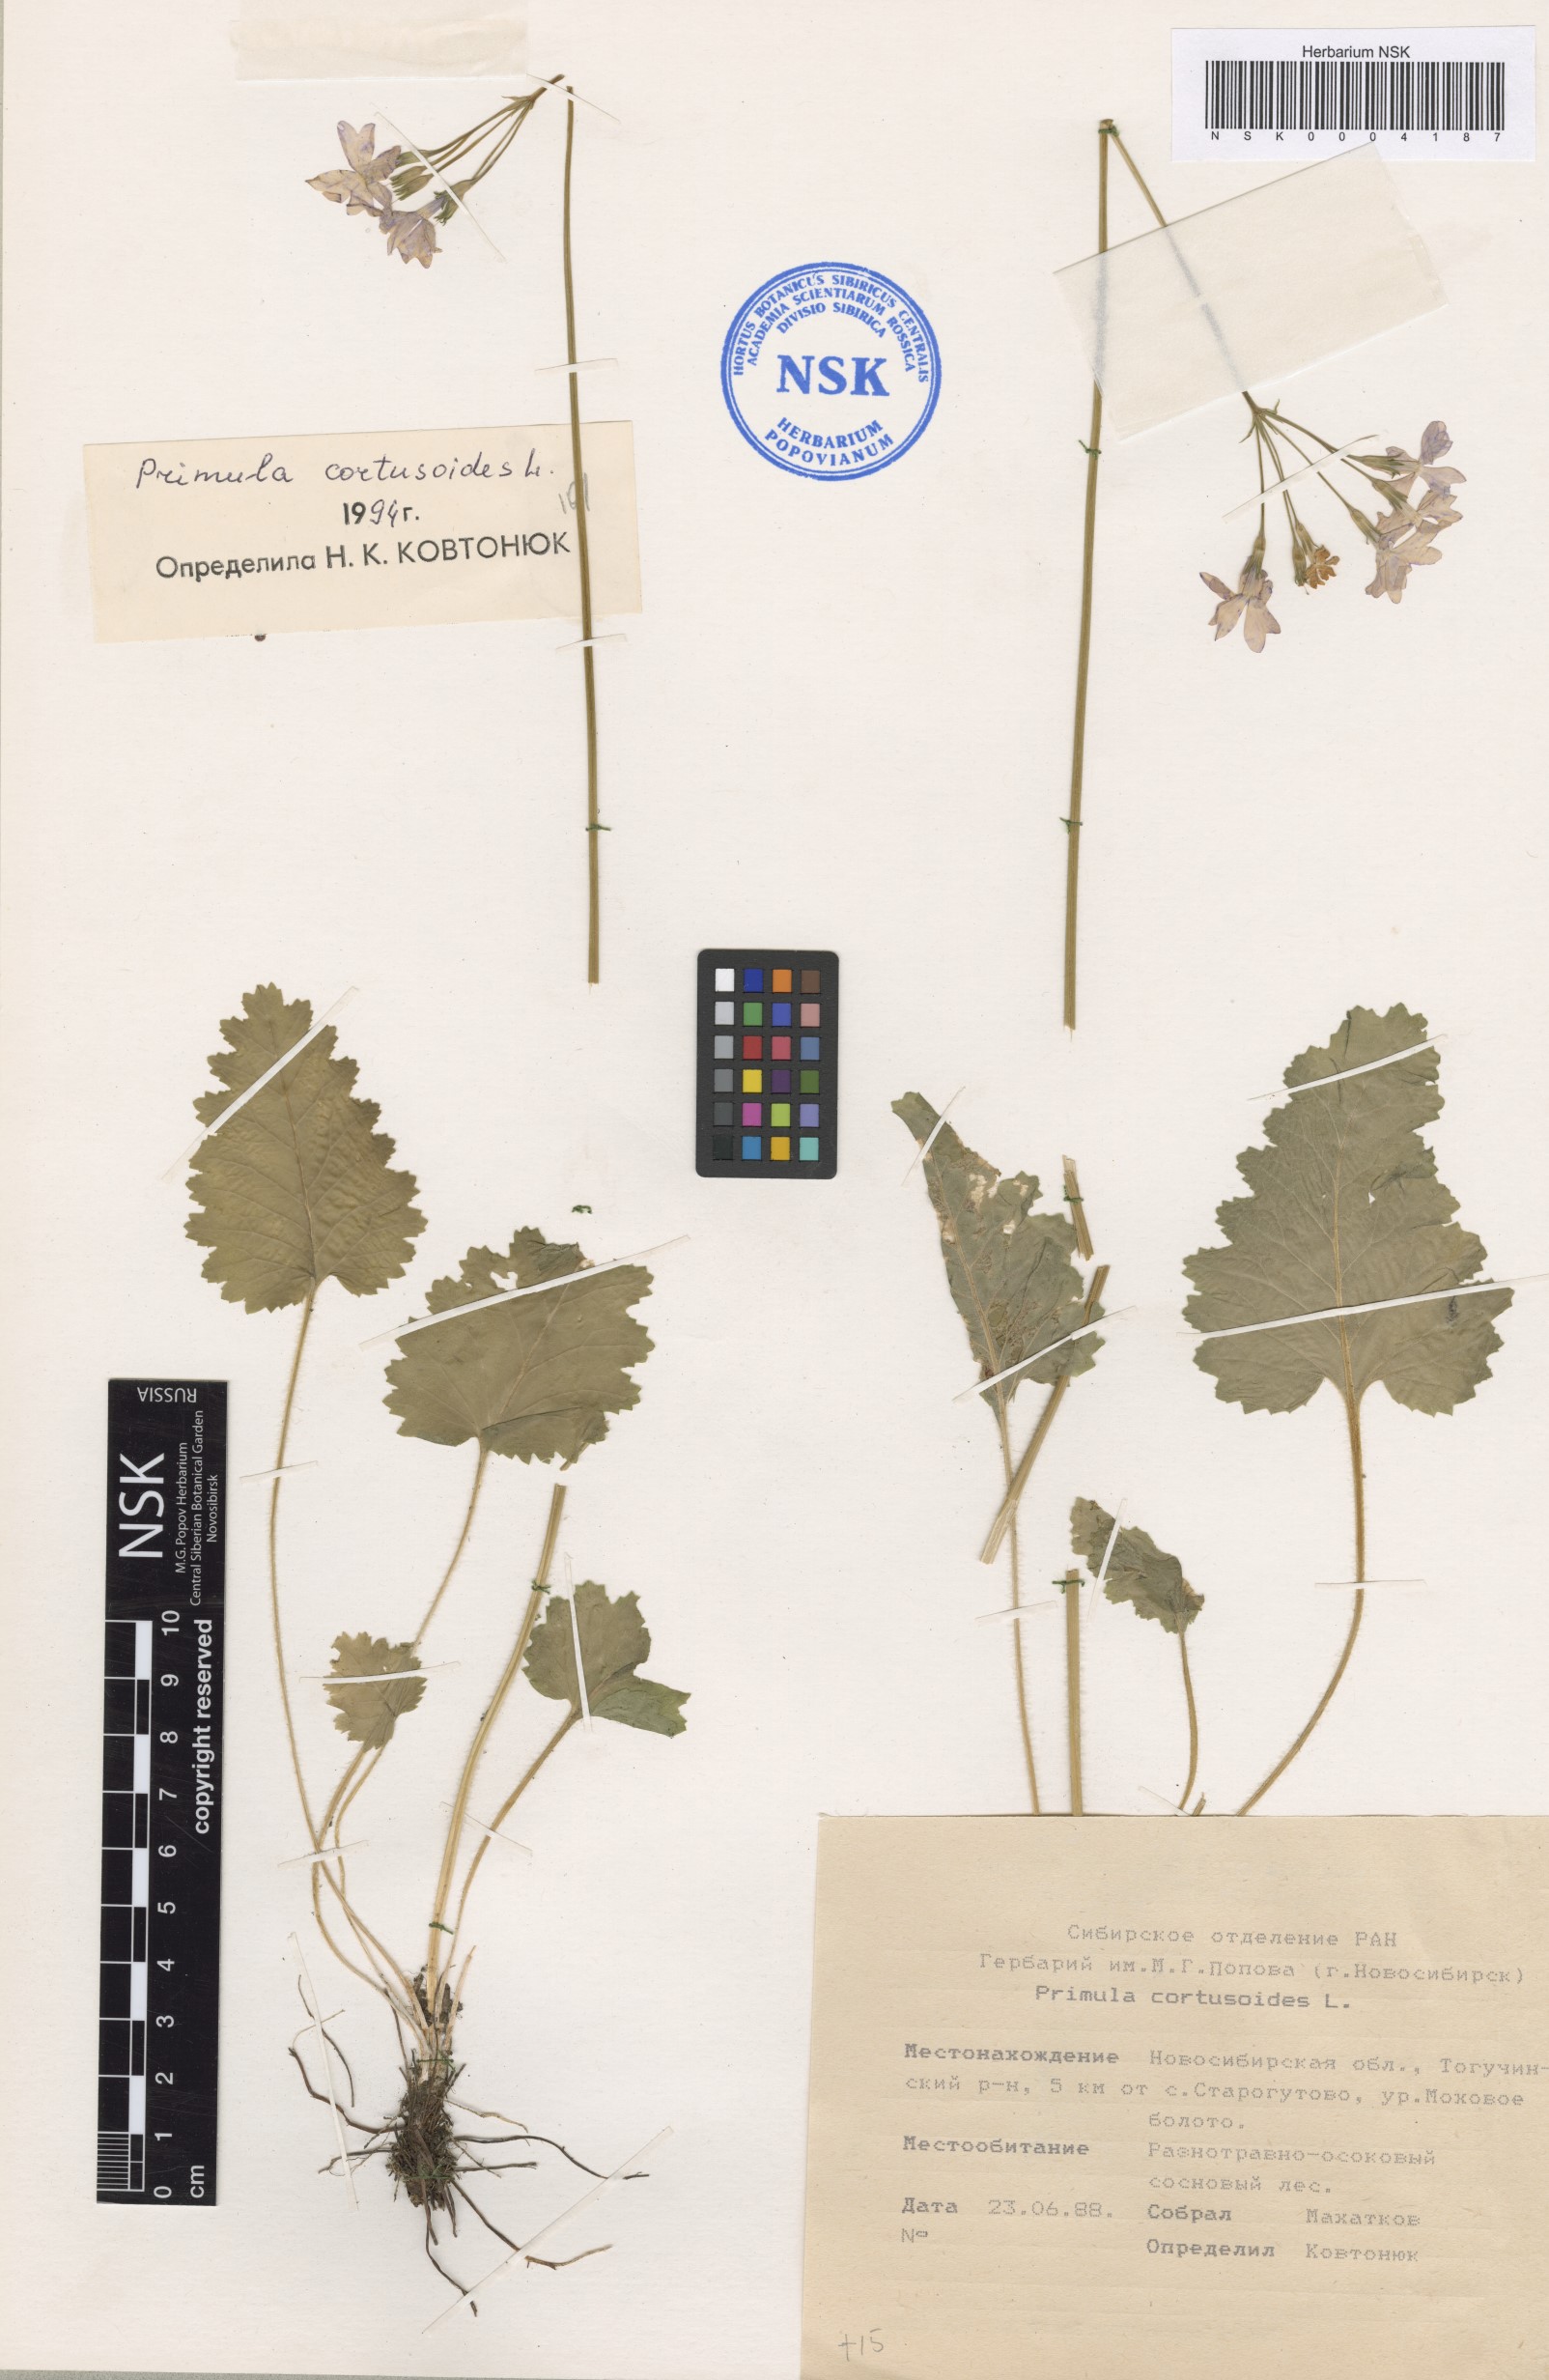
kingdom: Plantae
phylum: Tracheophyta
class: Magnoliopsida
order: Ericales
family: Primulaceae
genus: Primula
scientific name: Primula cortusoides
